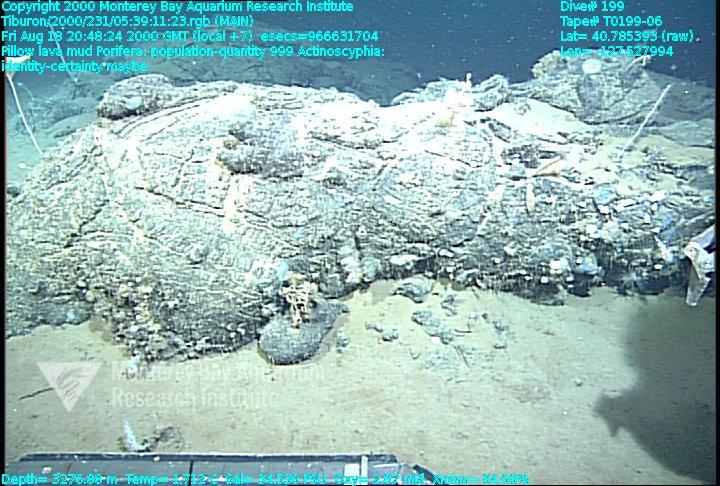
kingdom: Animalia
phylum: Porifera
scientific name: Porifera
